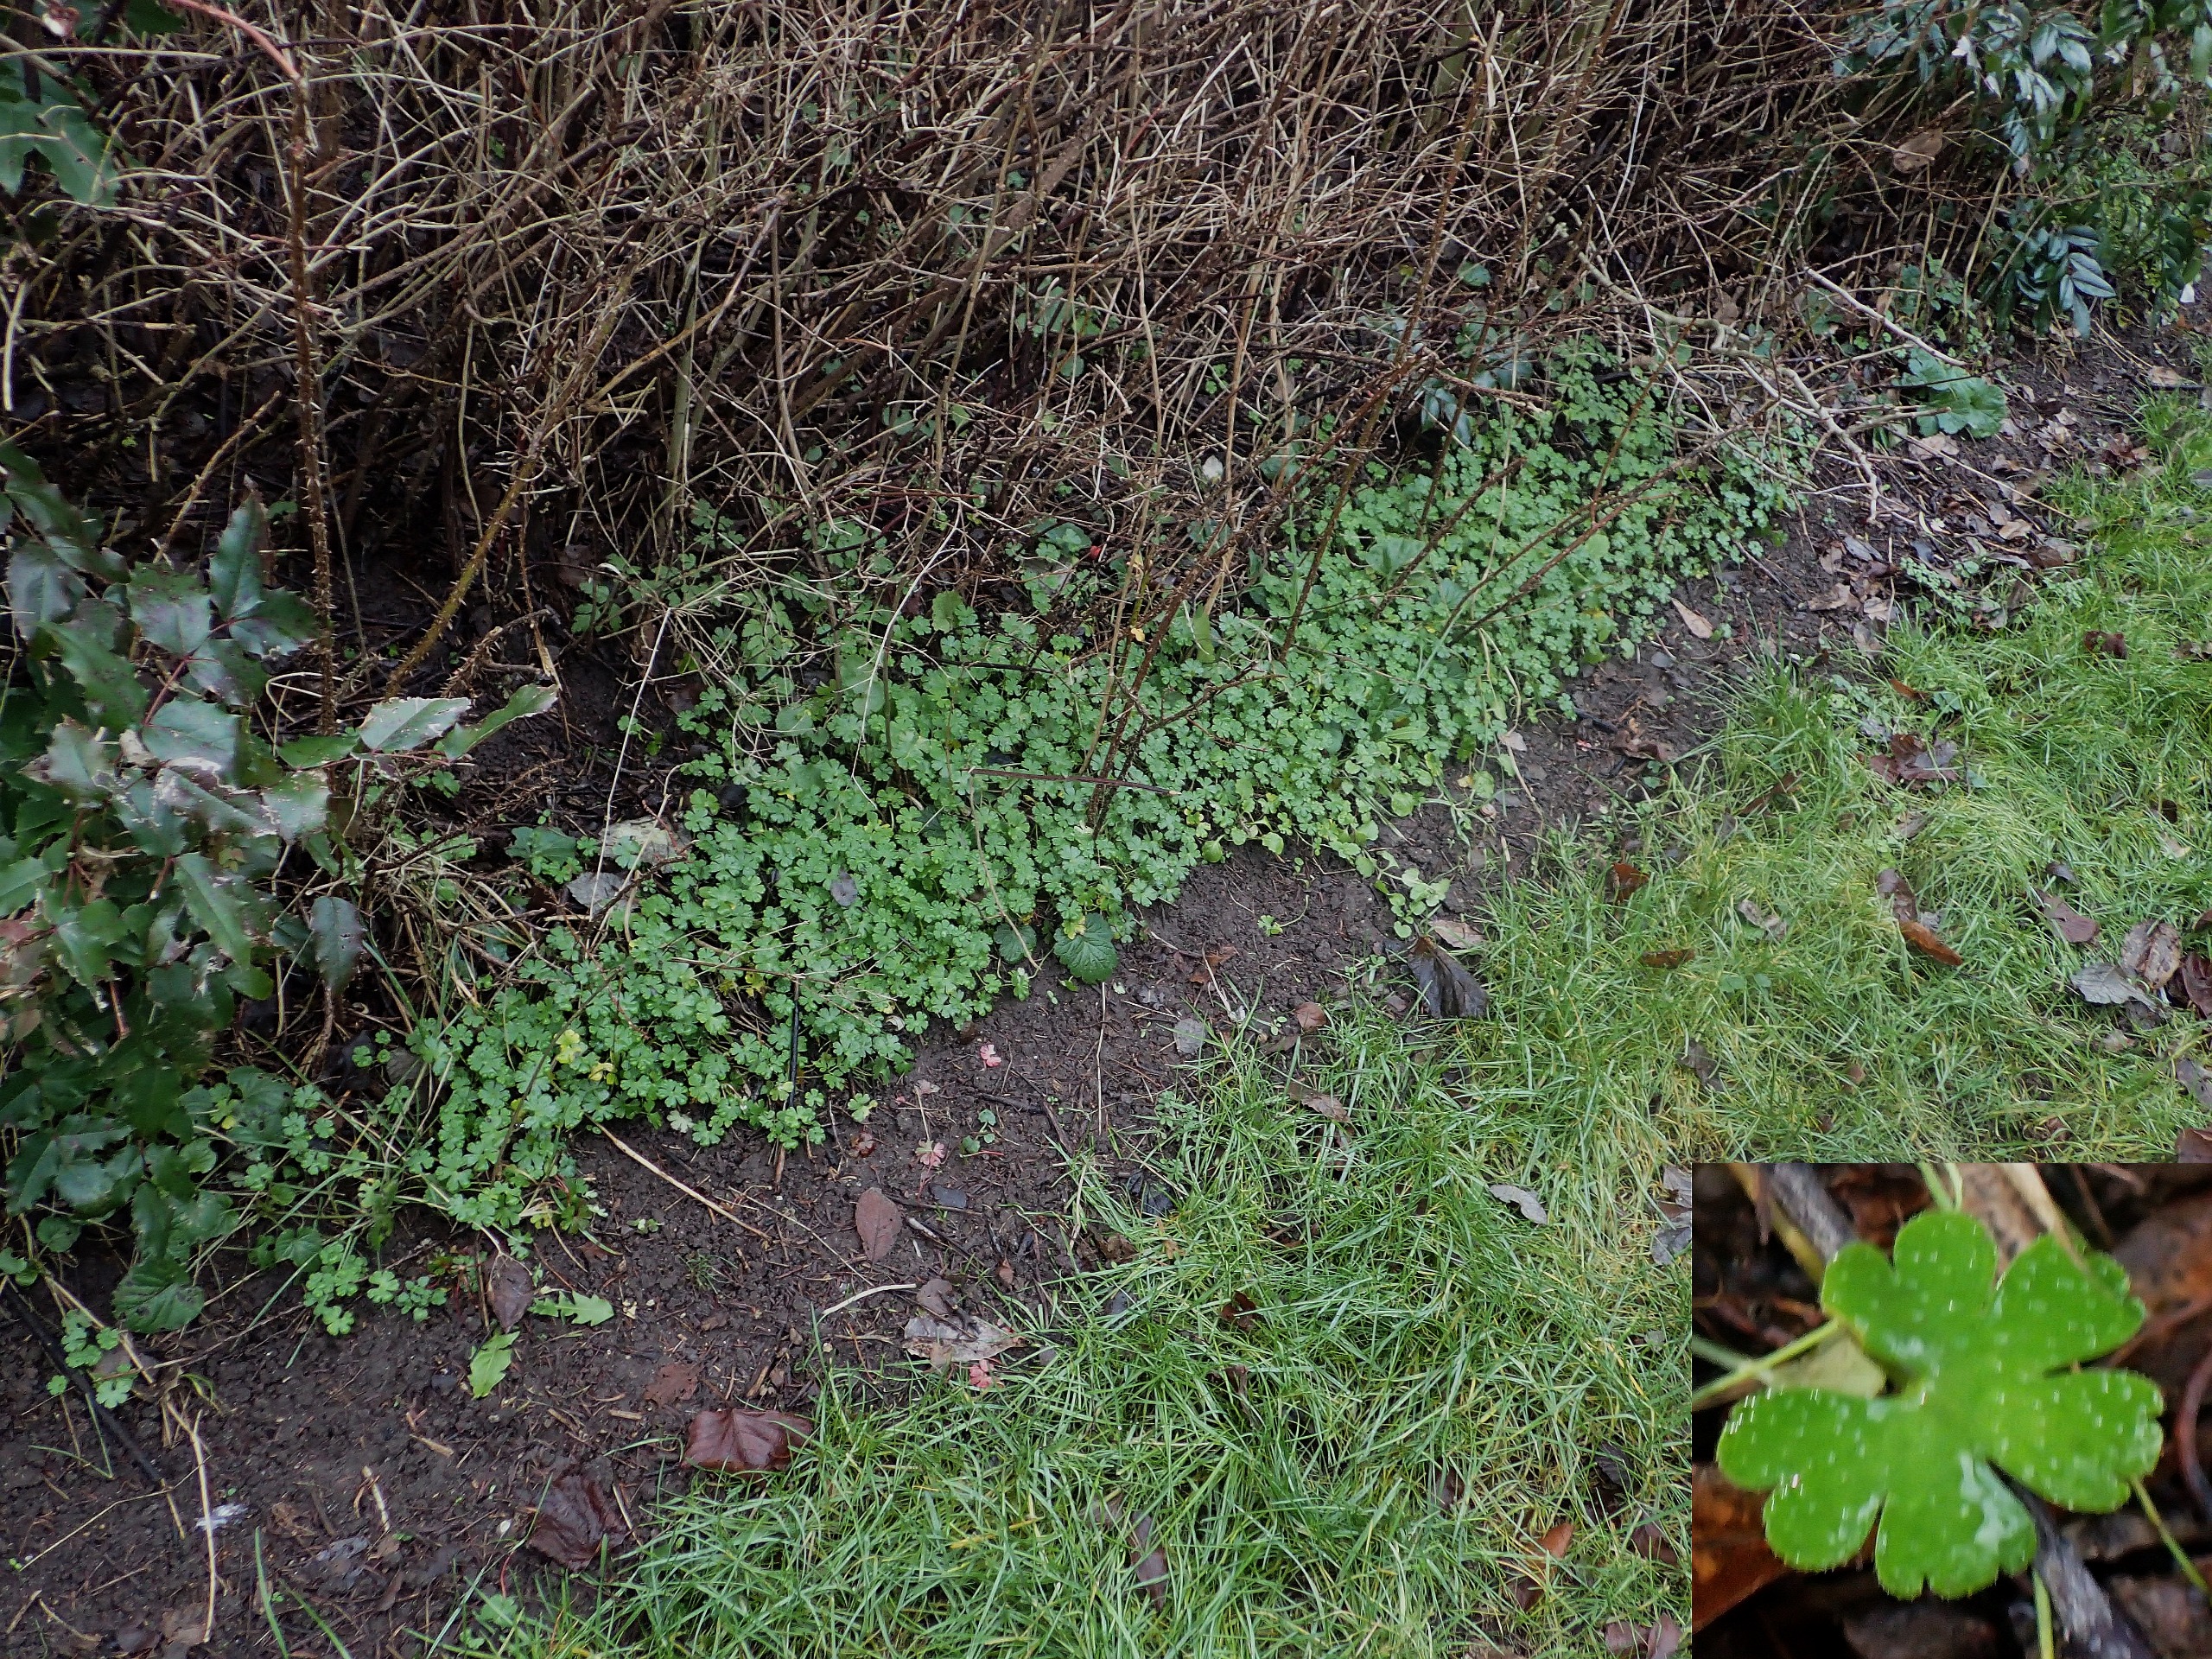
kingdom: Plantae
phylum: Tracheophyta
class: Magnoliopsida
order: Geraniales
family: Geraniaceae
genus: Geranium
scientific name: Geranium lucidum
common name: Skinnende storkenæb
